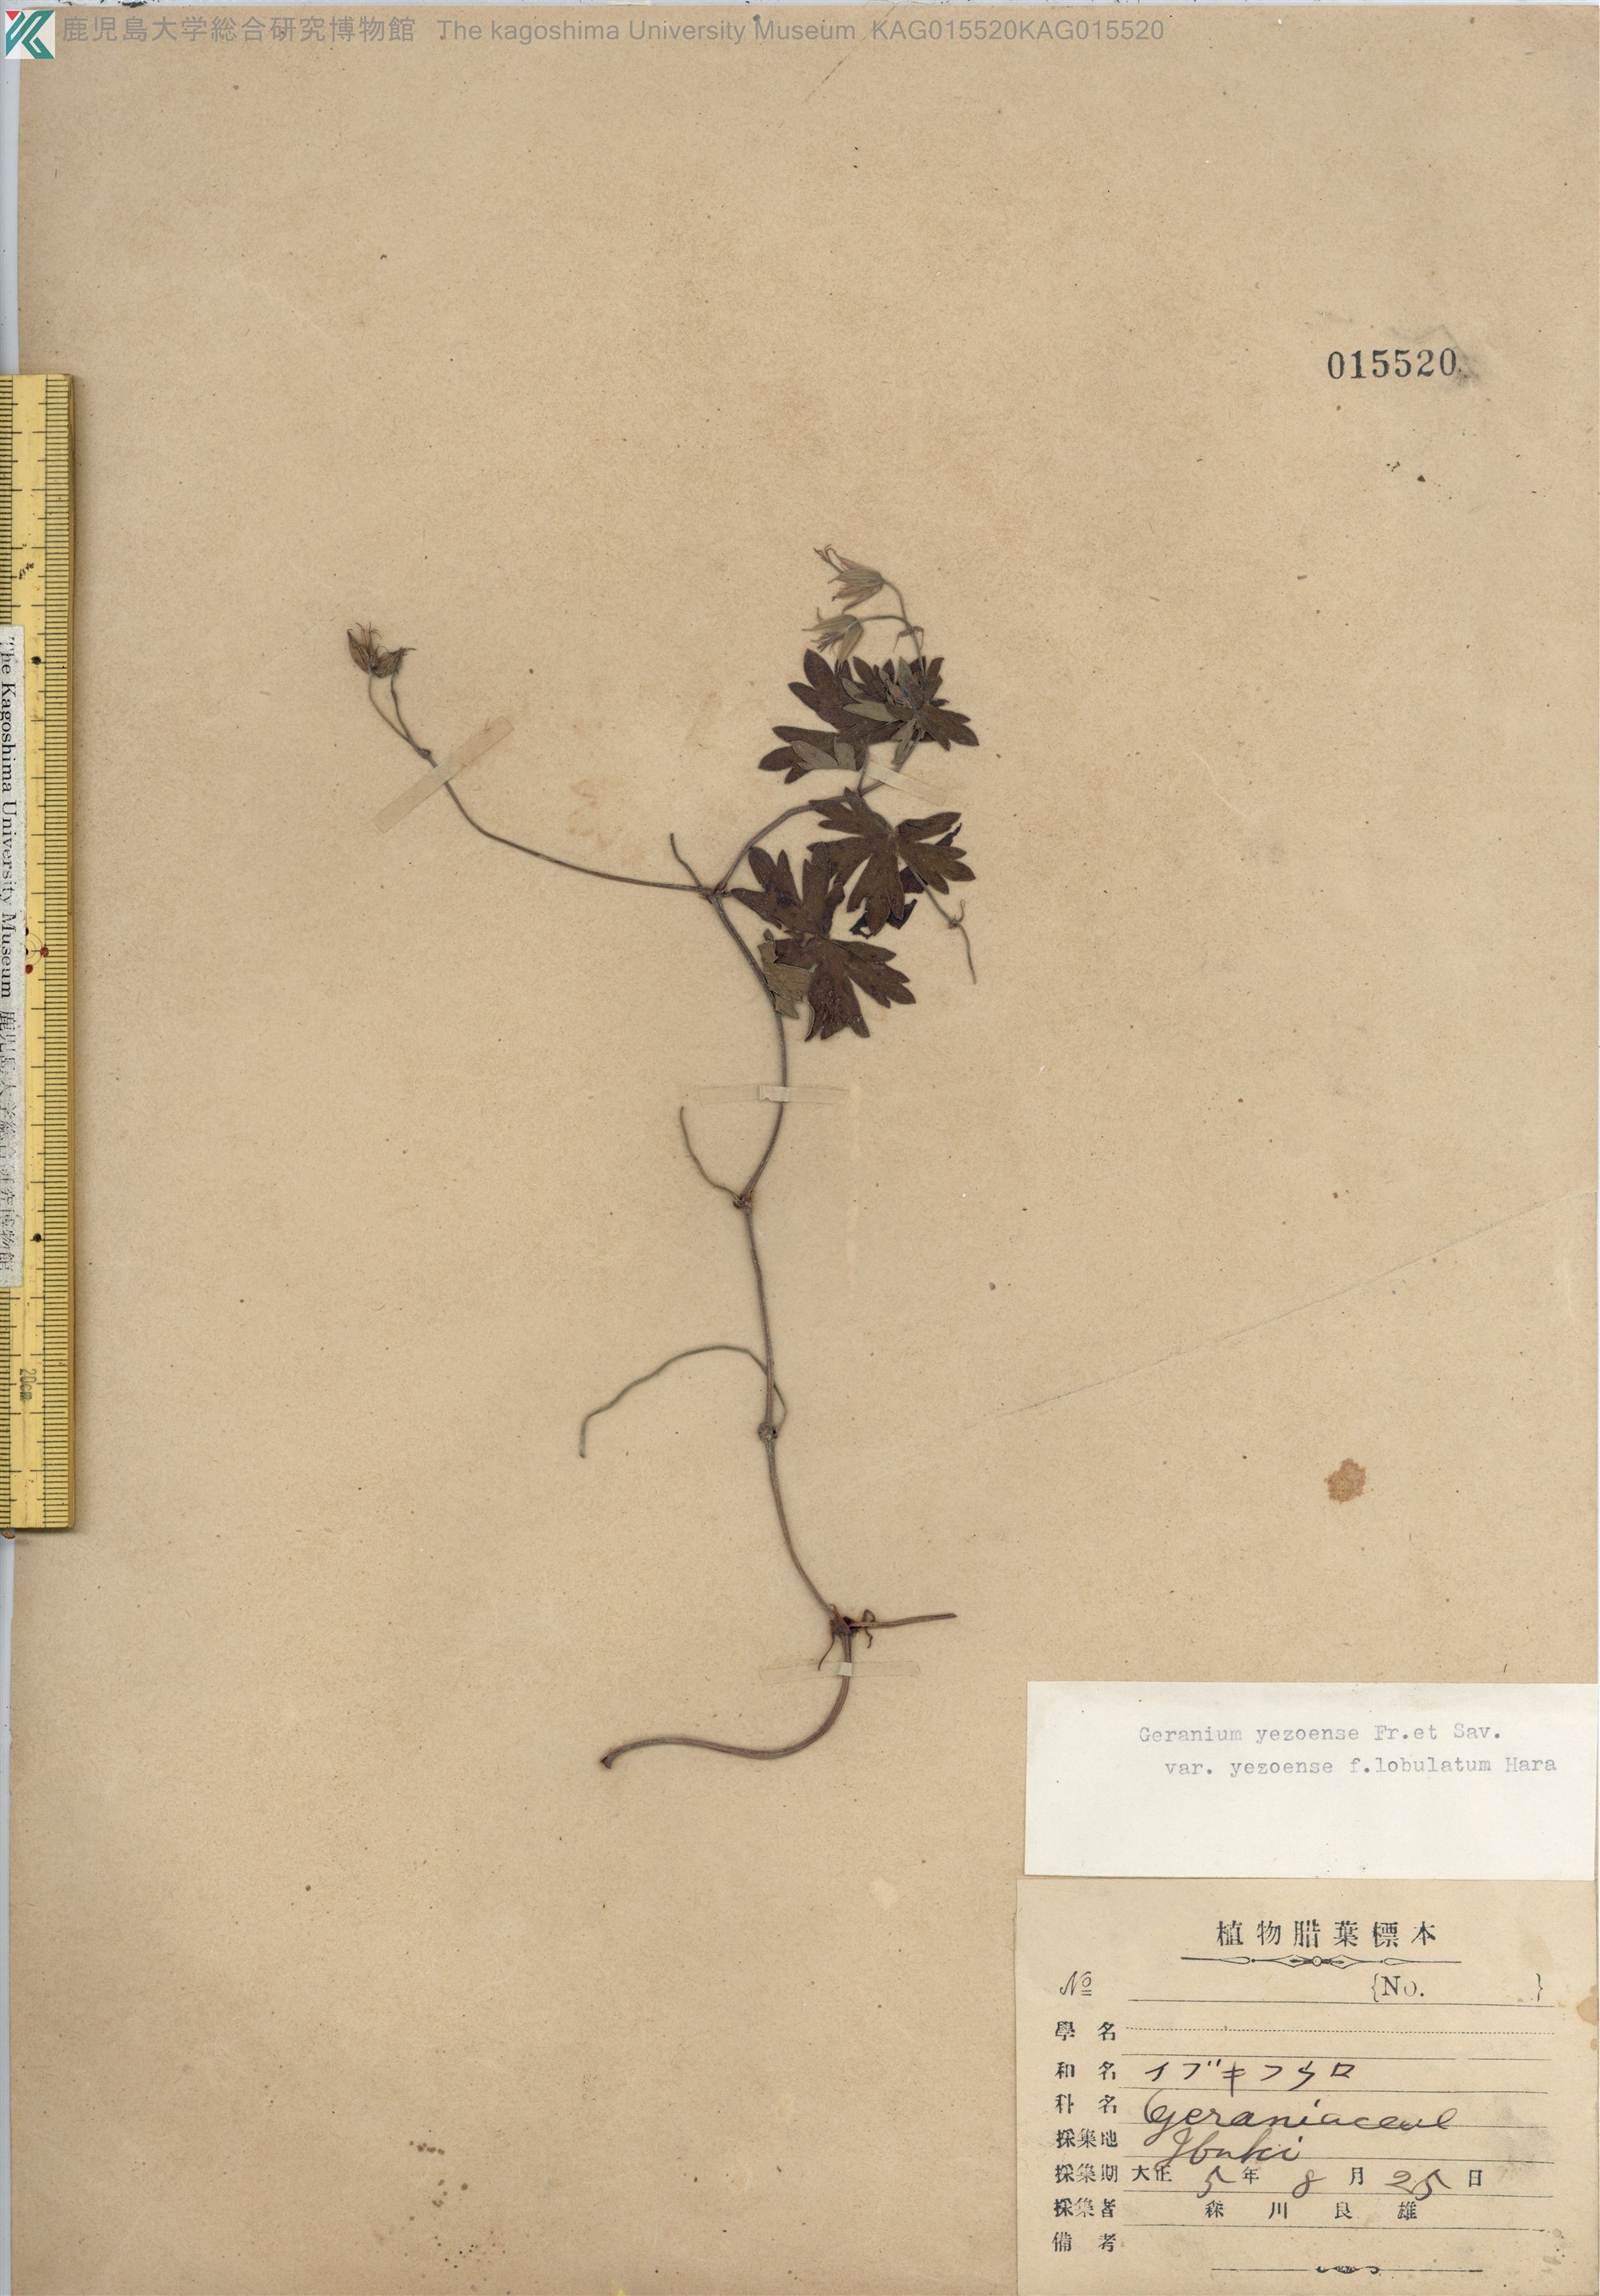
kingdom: Plantae
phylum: Tracheophyta
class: Magnoliopsida
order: Geraniales
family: Geraniaceae
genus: Geranium
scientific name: Geranium yesoense
